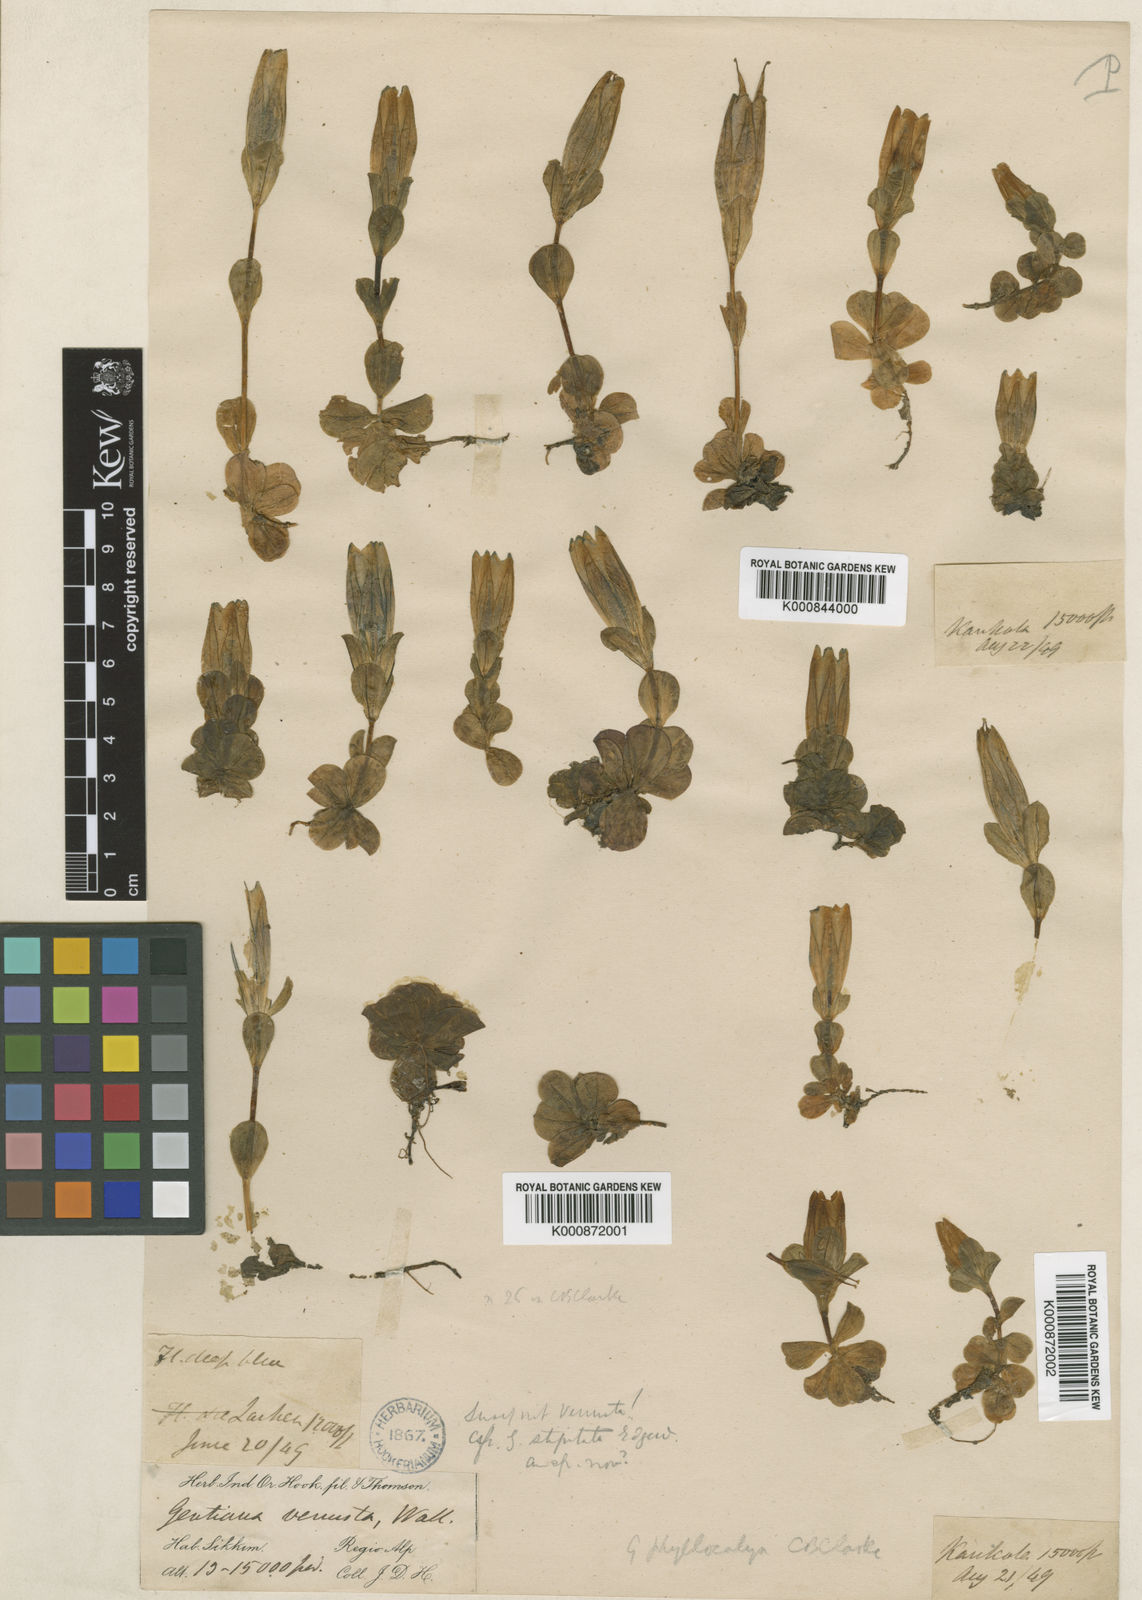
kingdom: Plantae
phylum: Tracheophyta
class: Magnoliopsida
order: Gentianales
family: Gentianaceae
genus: Gentiana
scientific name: Gentiana phyllocalyx
